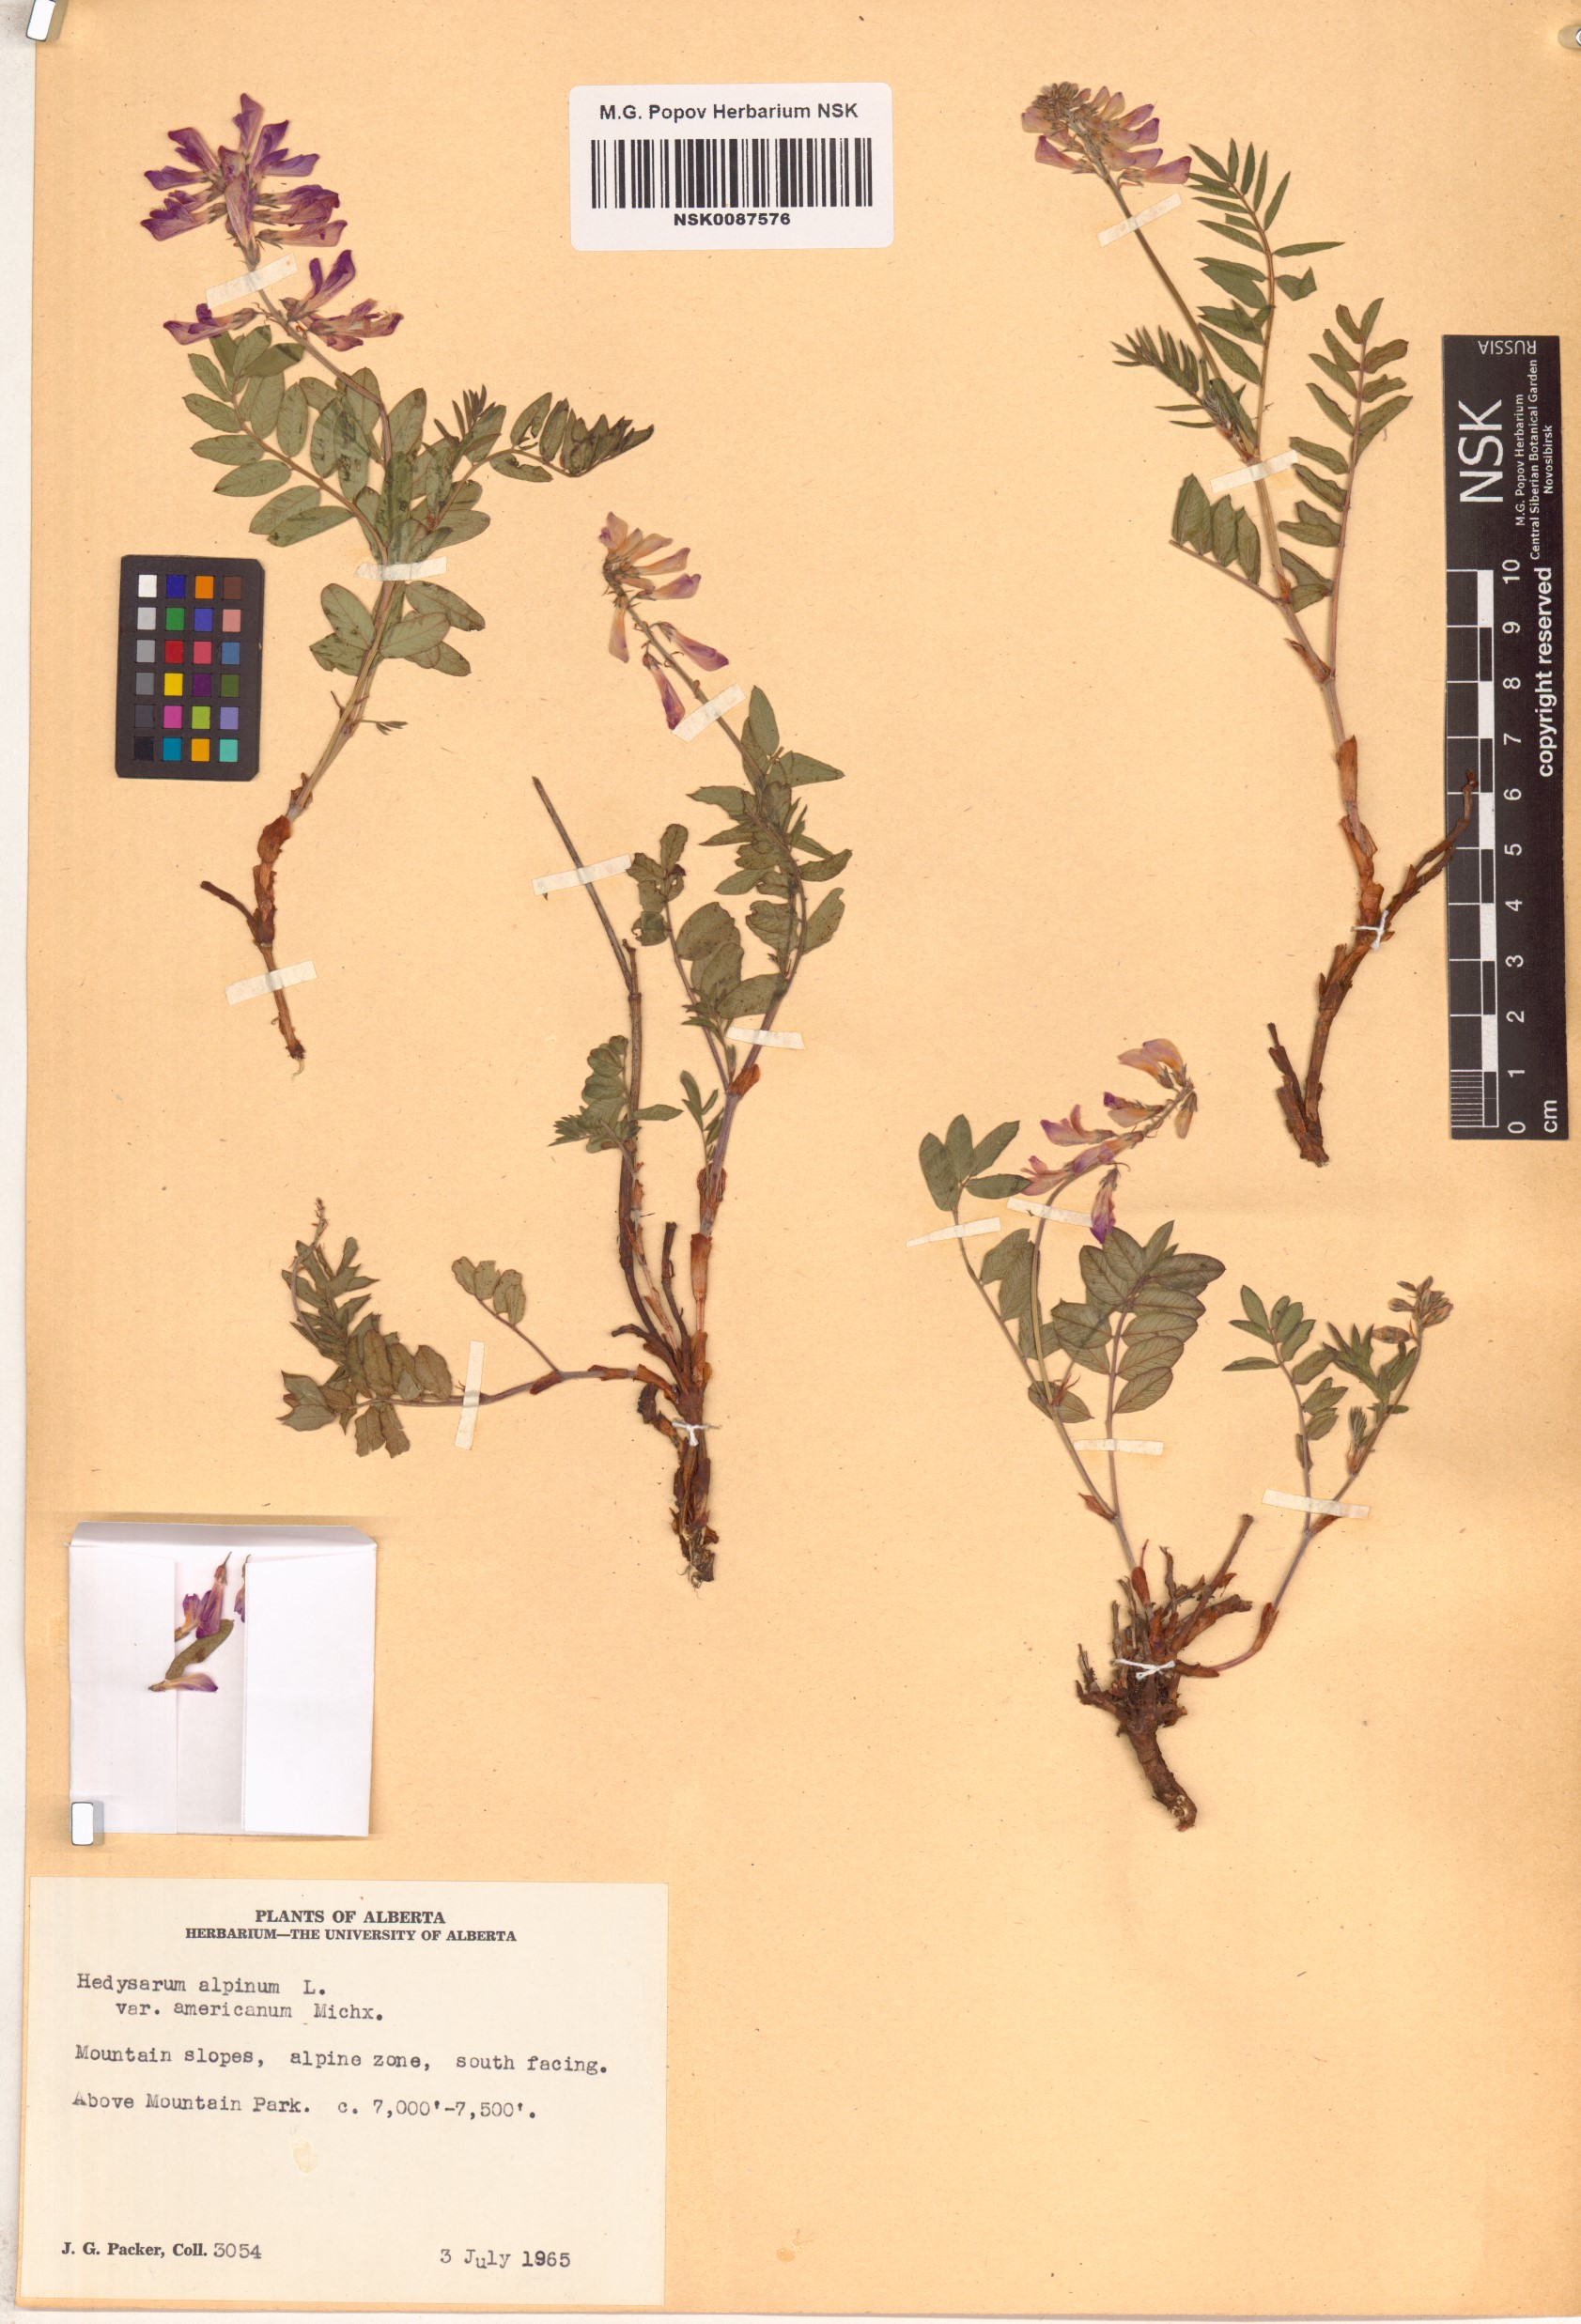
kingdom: Plantae
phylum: Tracheophyta
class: Magnoliopsida
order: Fabales
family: Fabaceae
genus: Hedysarum
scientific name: Hedysarum americanum
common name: Alpine hedysarum
